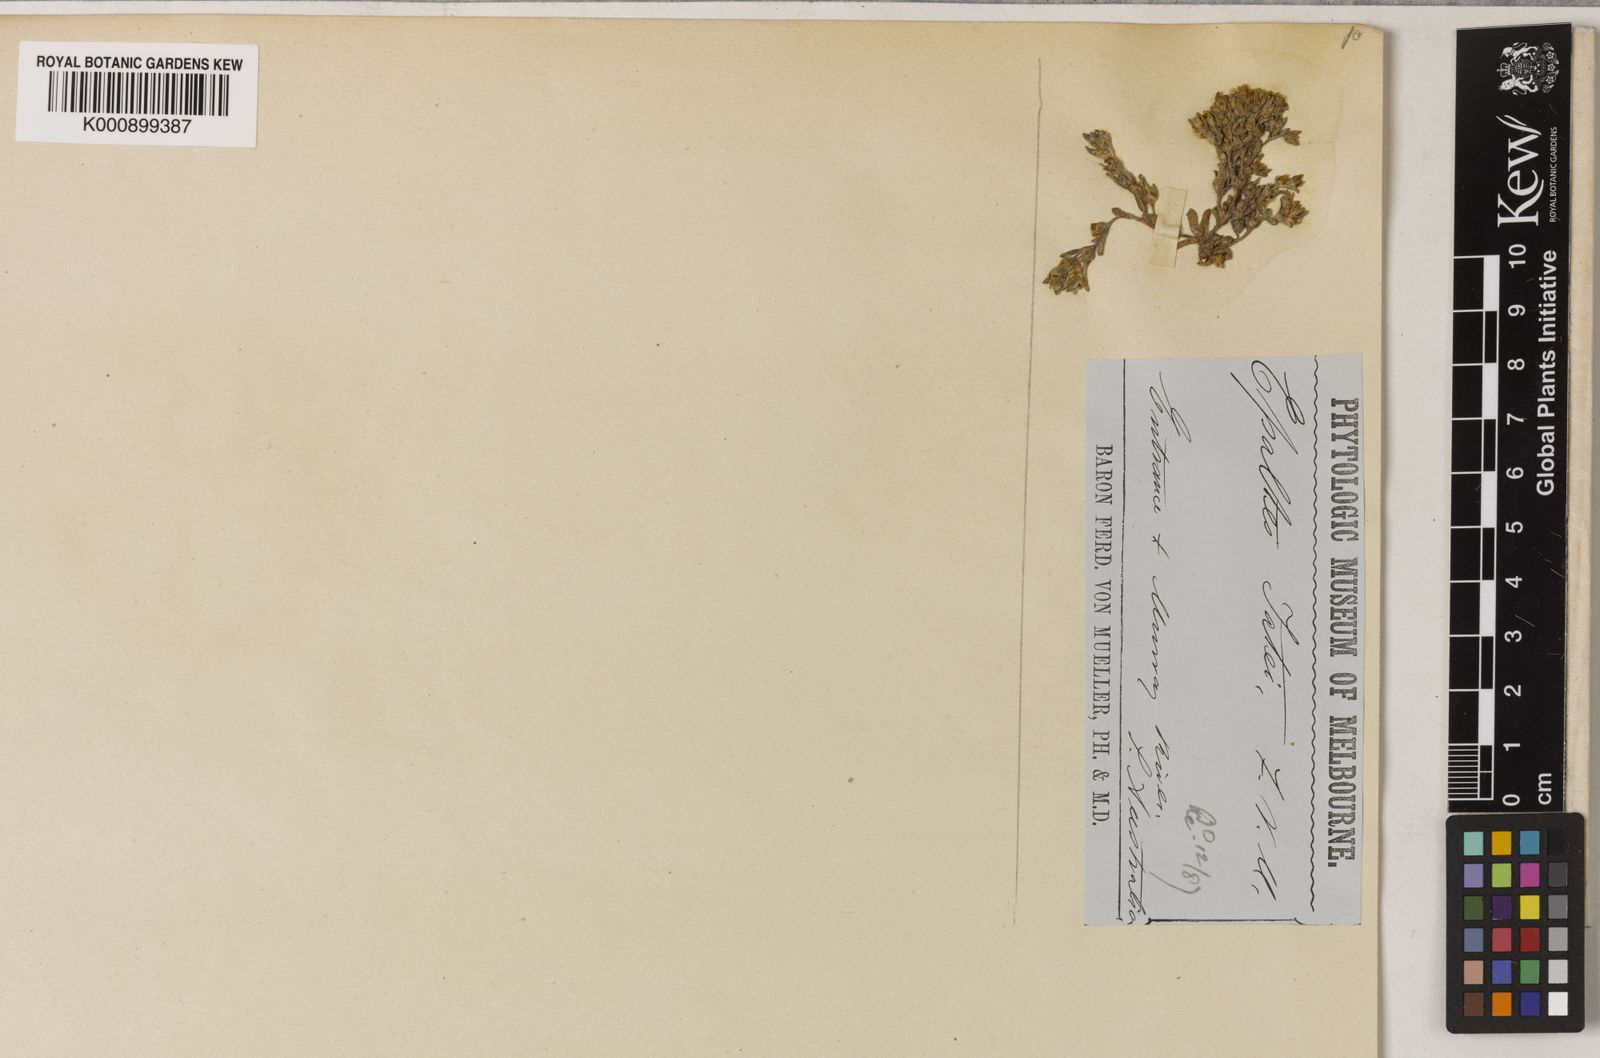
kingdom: Plantae
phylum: Tracheophyta
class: Magnoliopsida
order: Asterales
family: Asteraceae
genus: Haegiela
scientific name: Haegiela
